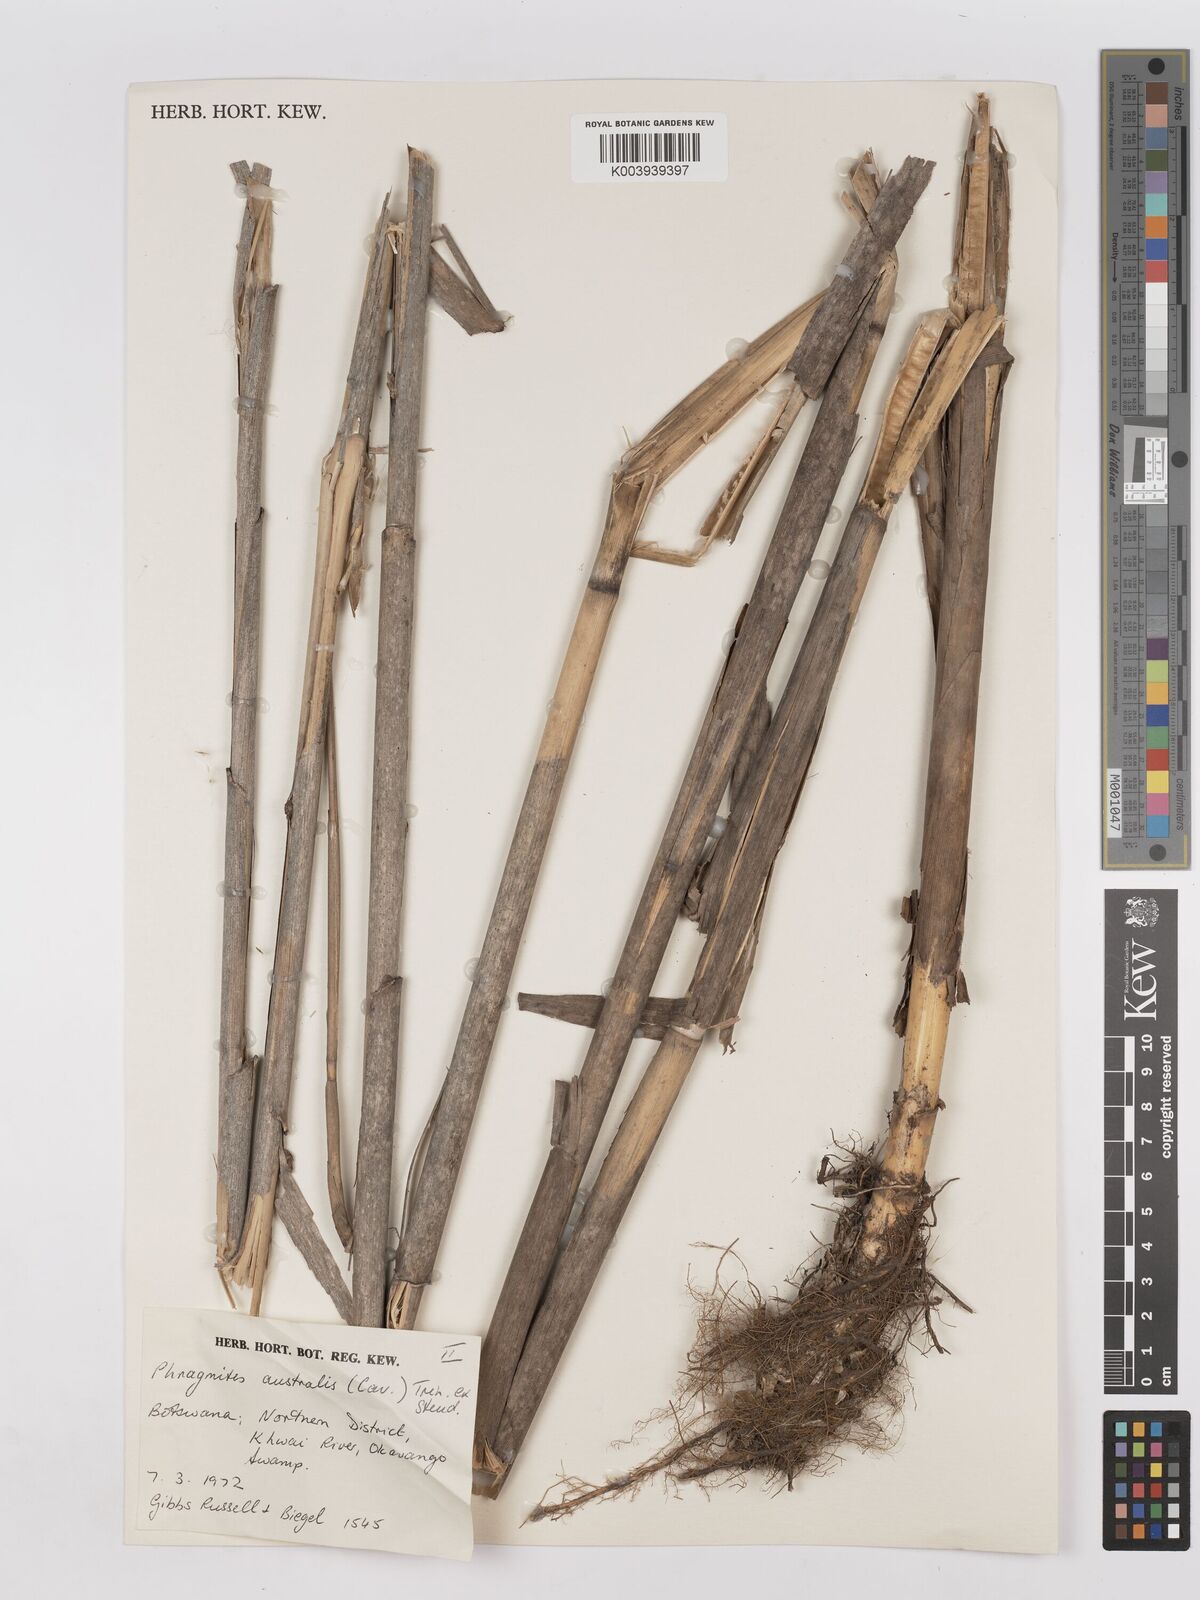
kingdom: Plantae
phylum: Tracheophyta
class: Liliopsida
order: Poales
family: Poaceae
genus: Phragmites
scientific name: Phragmites australis
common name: Common reed
